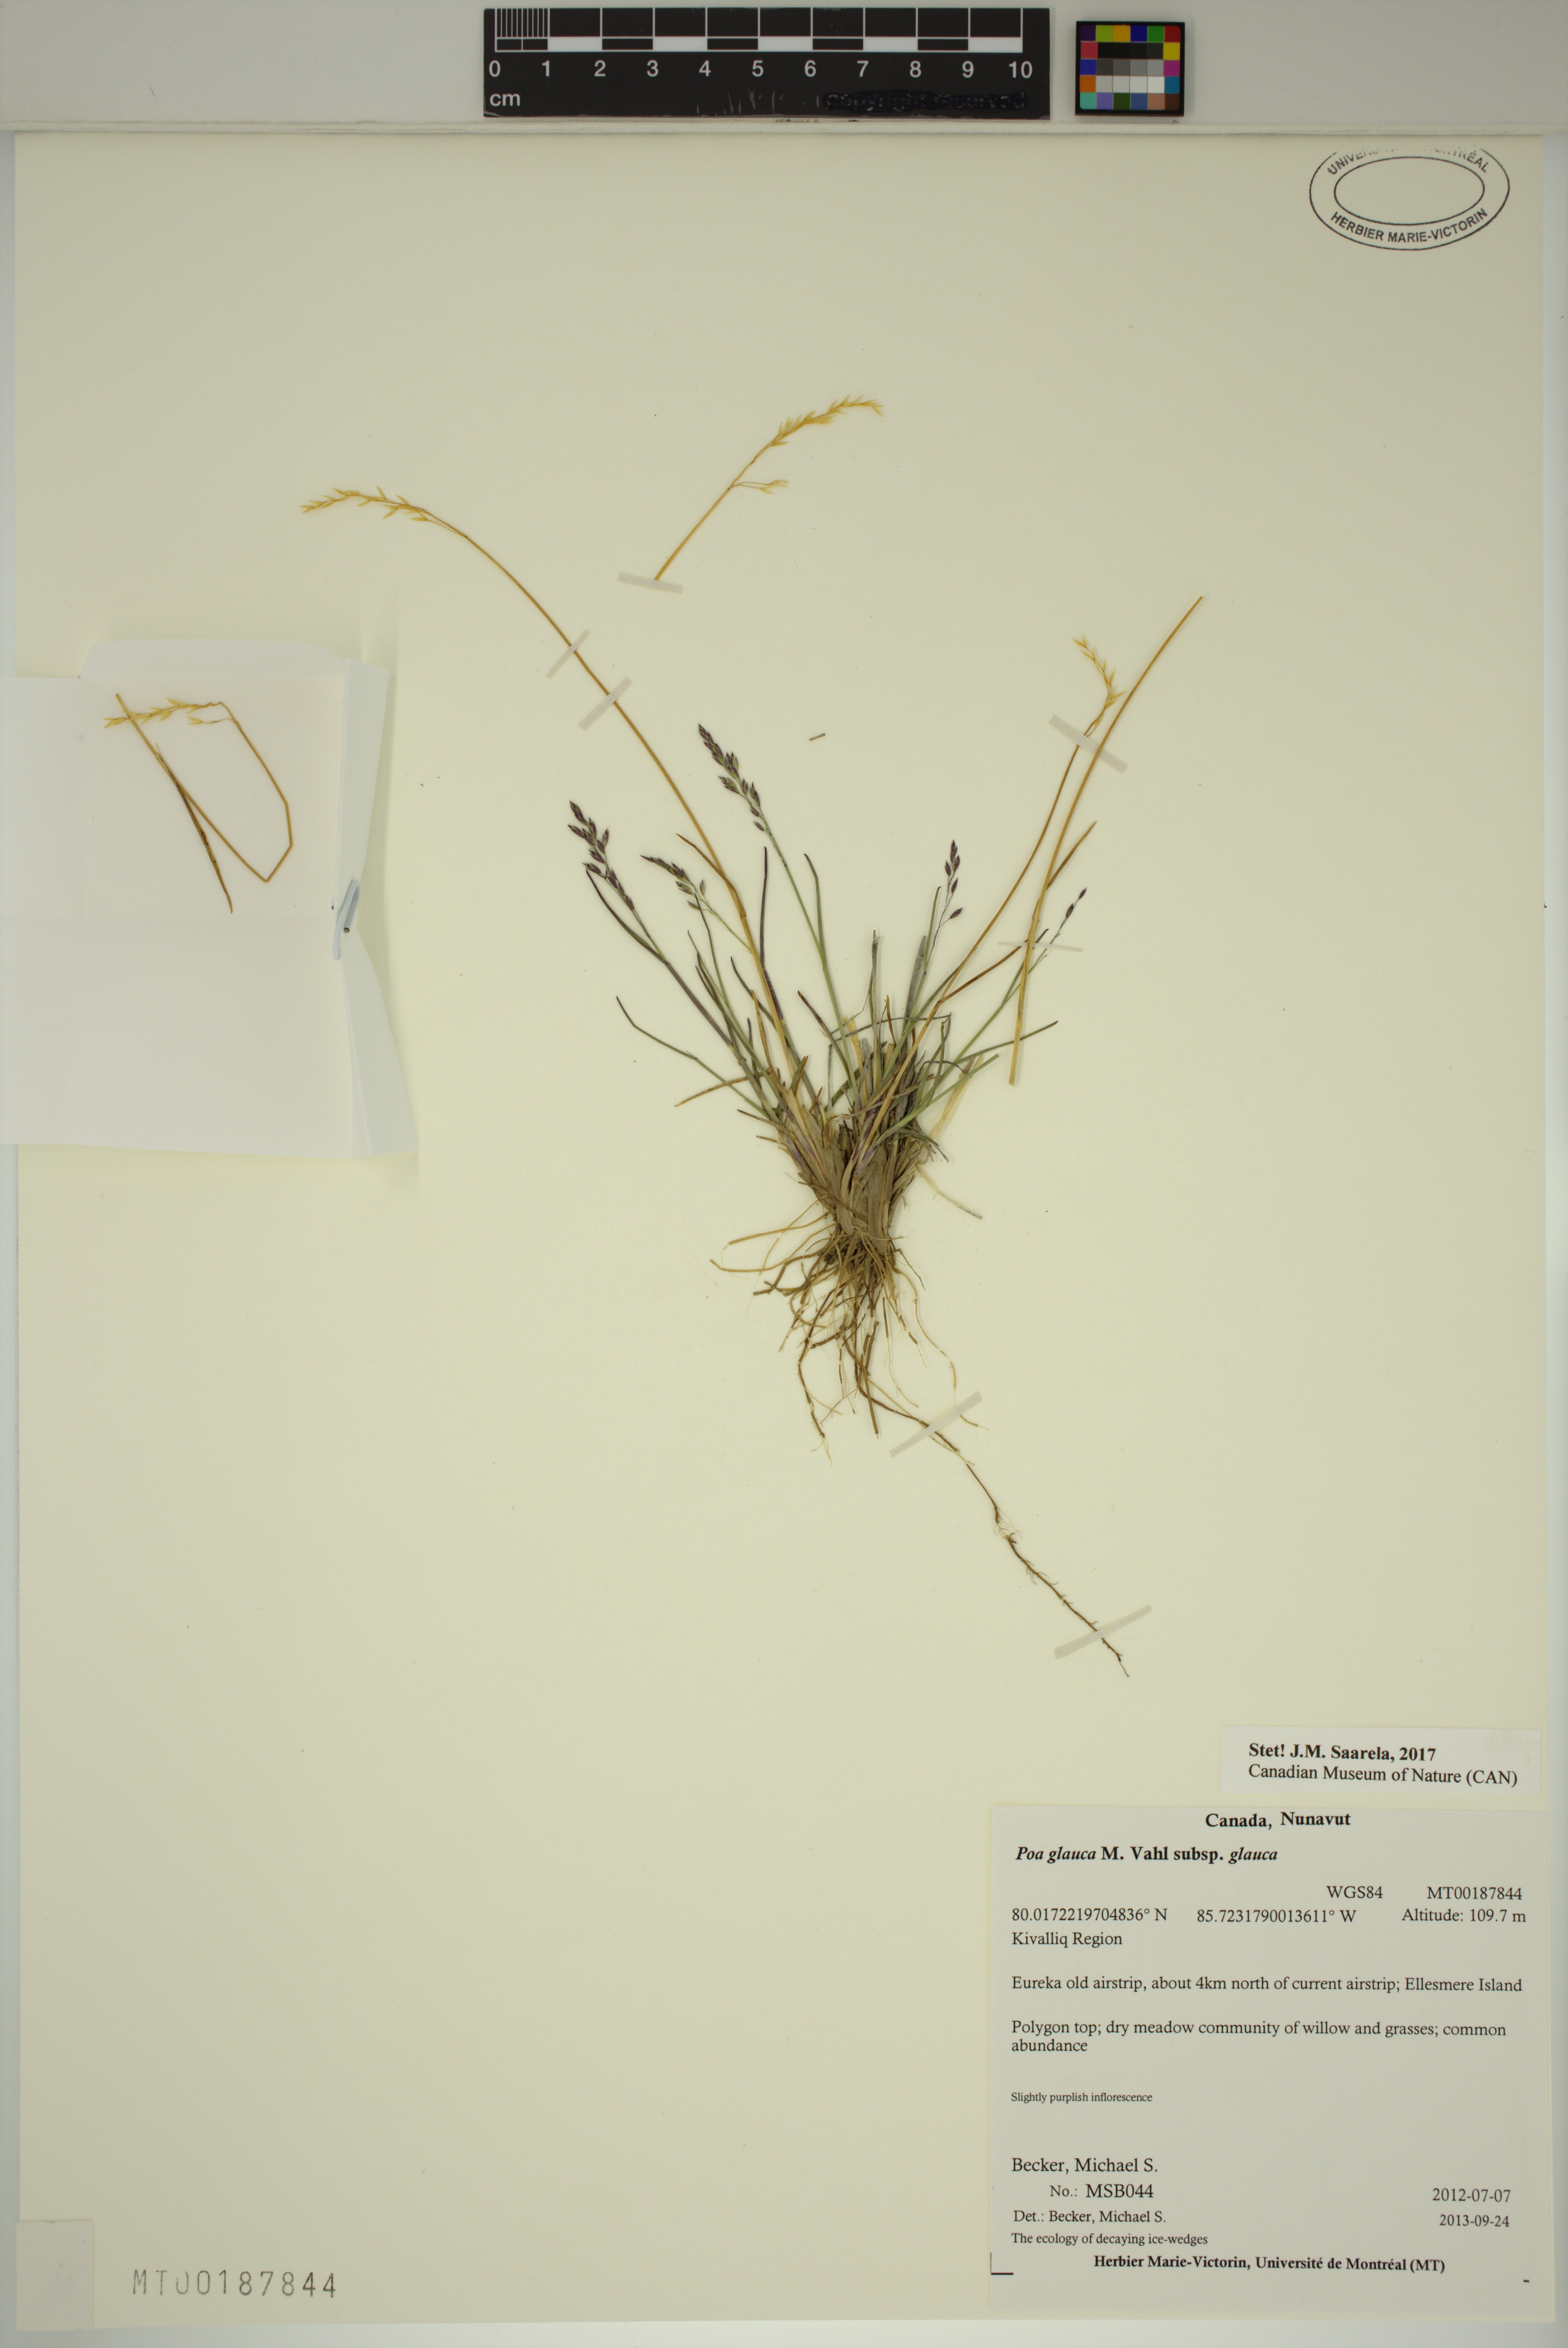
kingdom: Plantae
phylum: Tracheophyta
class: Liliopsida
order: Poales
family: Poaceae
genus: Poa
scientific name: Poa glauca
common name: Glaucous bluegrass
